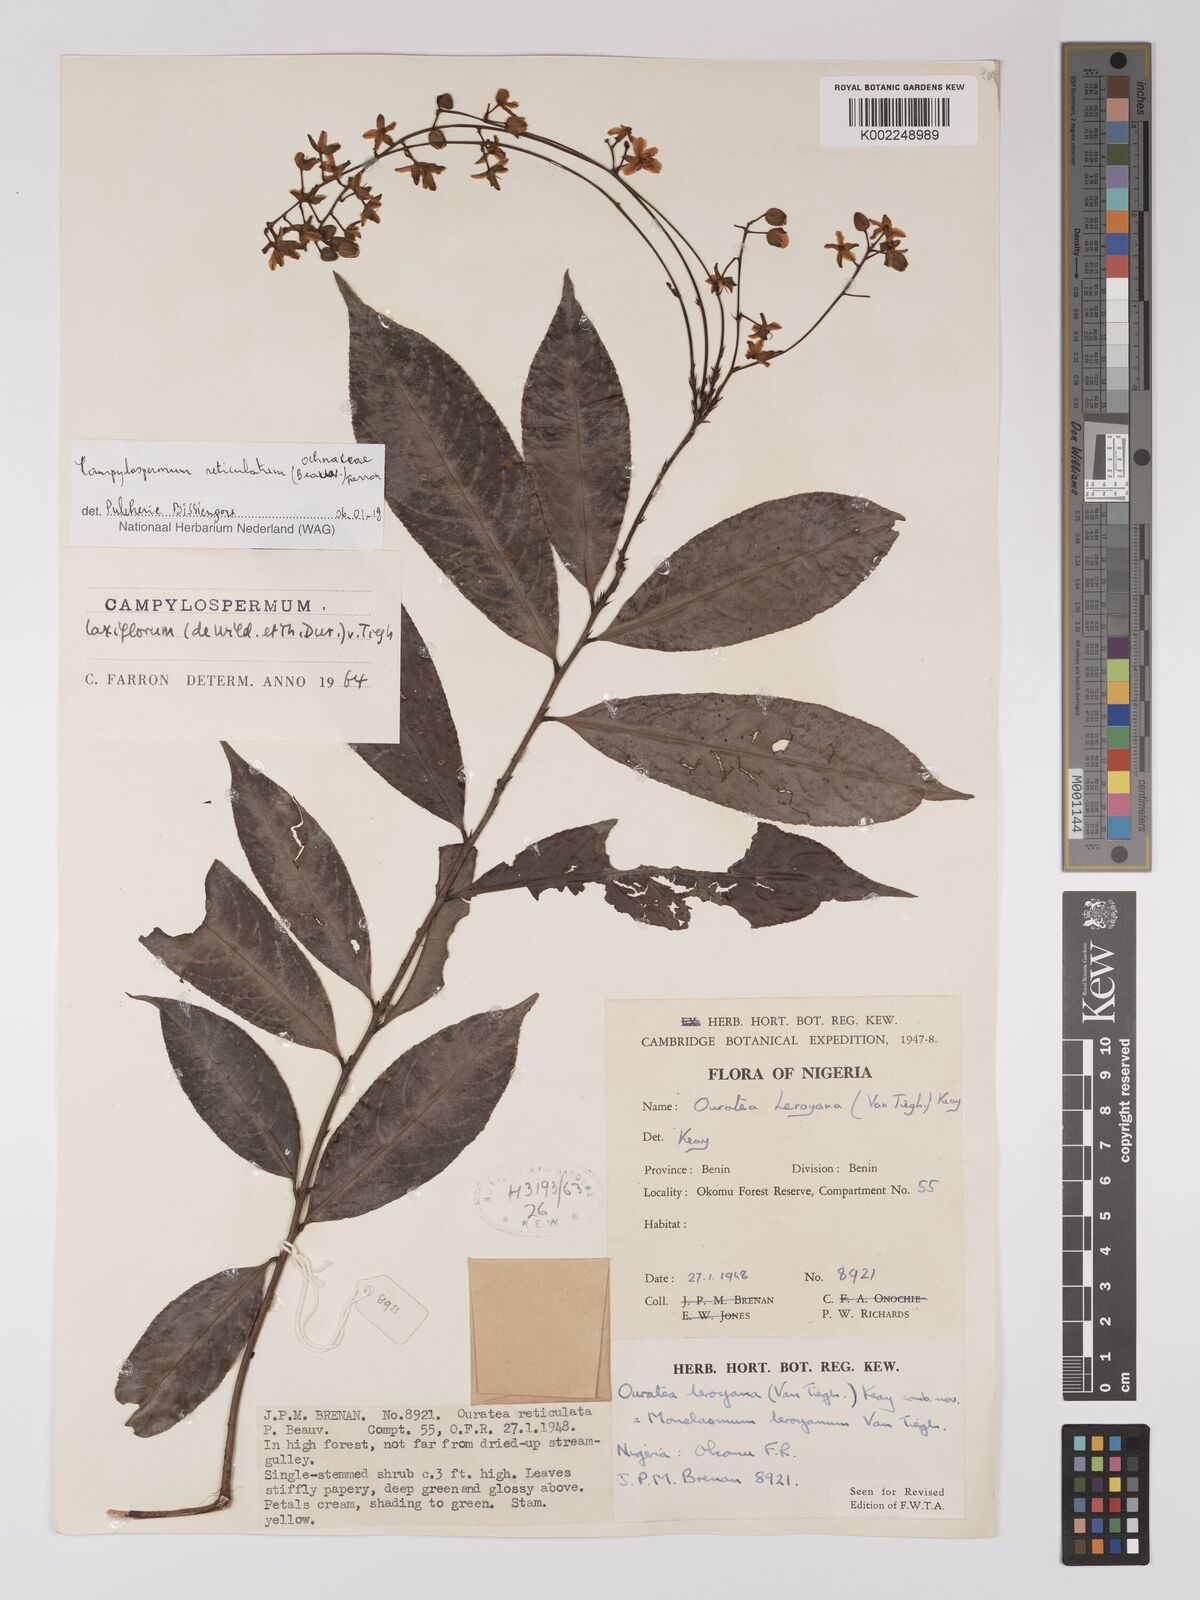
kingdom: Plantae
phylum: Tracheophyta
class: Magnoliopsida
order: Malpighiales
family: Ochnaceae
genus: Campylospermum
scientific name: Campylospermum reticulatum
